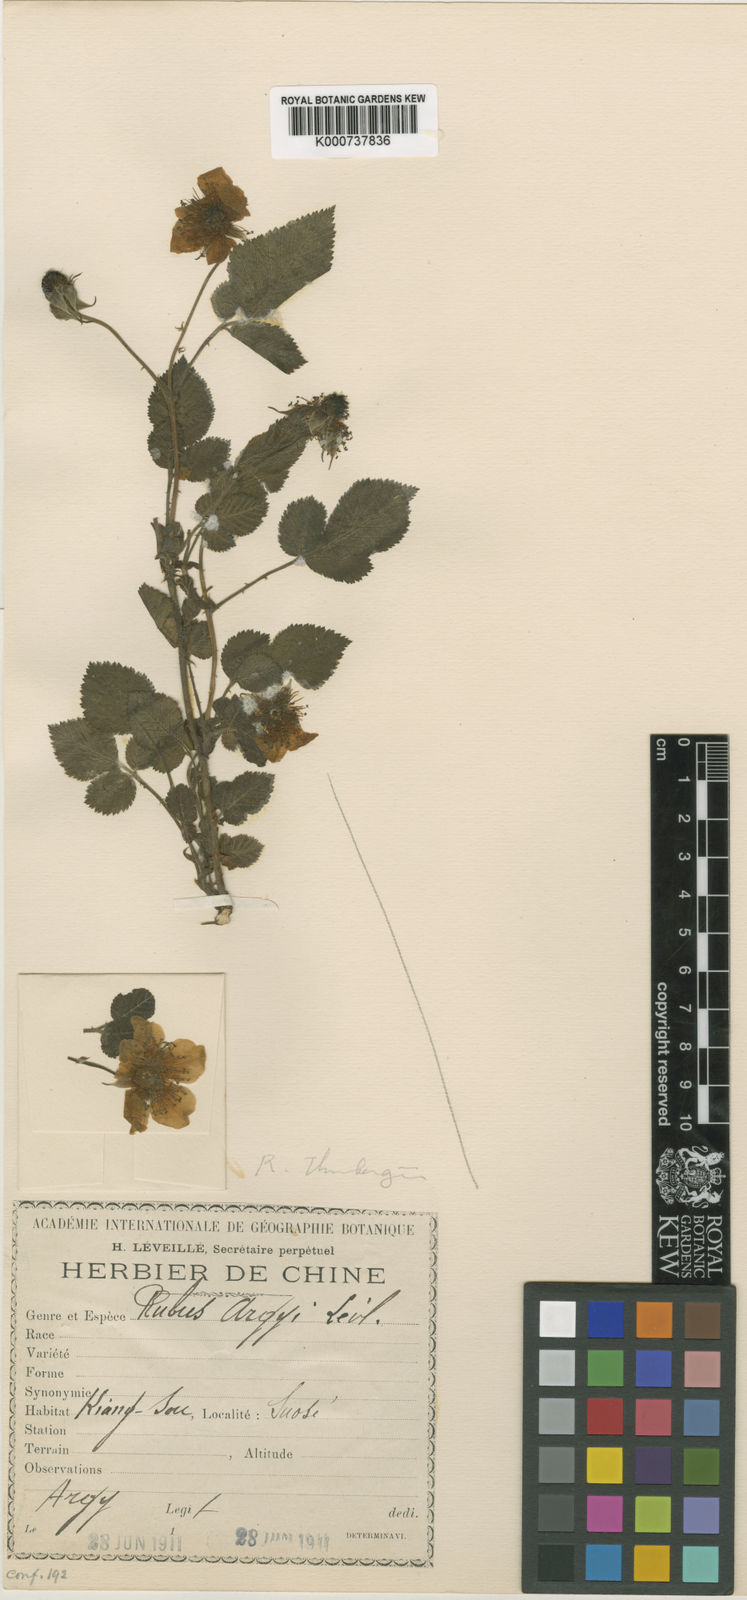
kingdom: Plantae
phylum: Tracheophyta
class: Magnoliopsida
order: Rosales
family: Rosaceae
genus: Rubus
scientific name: Rubus
